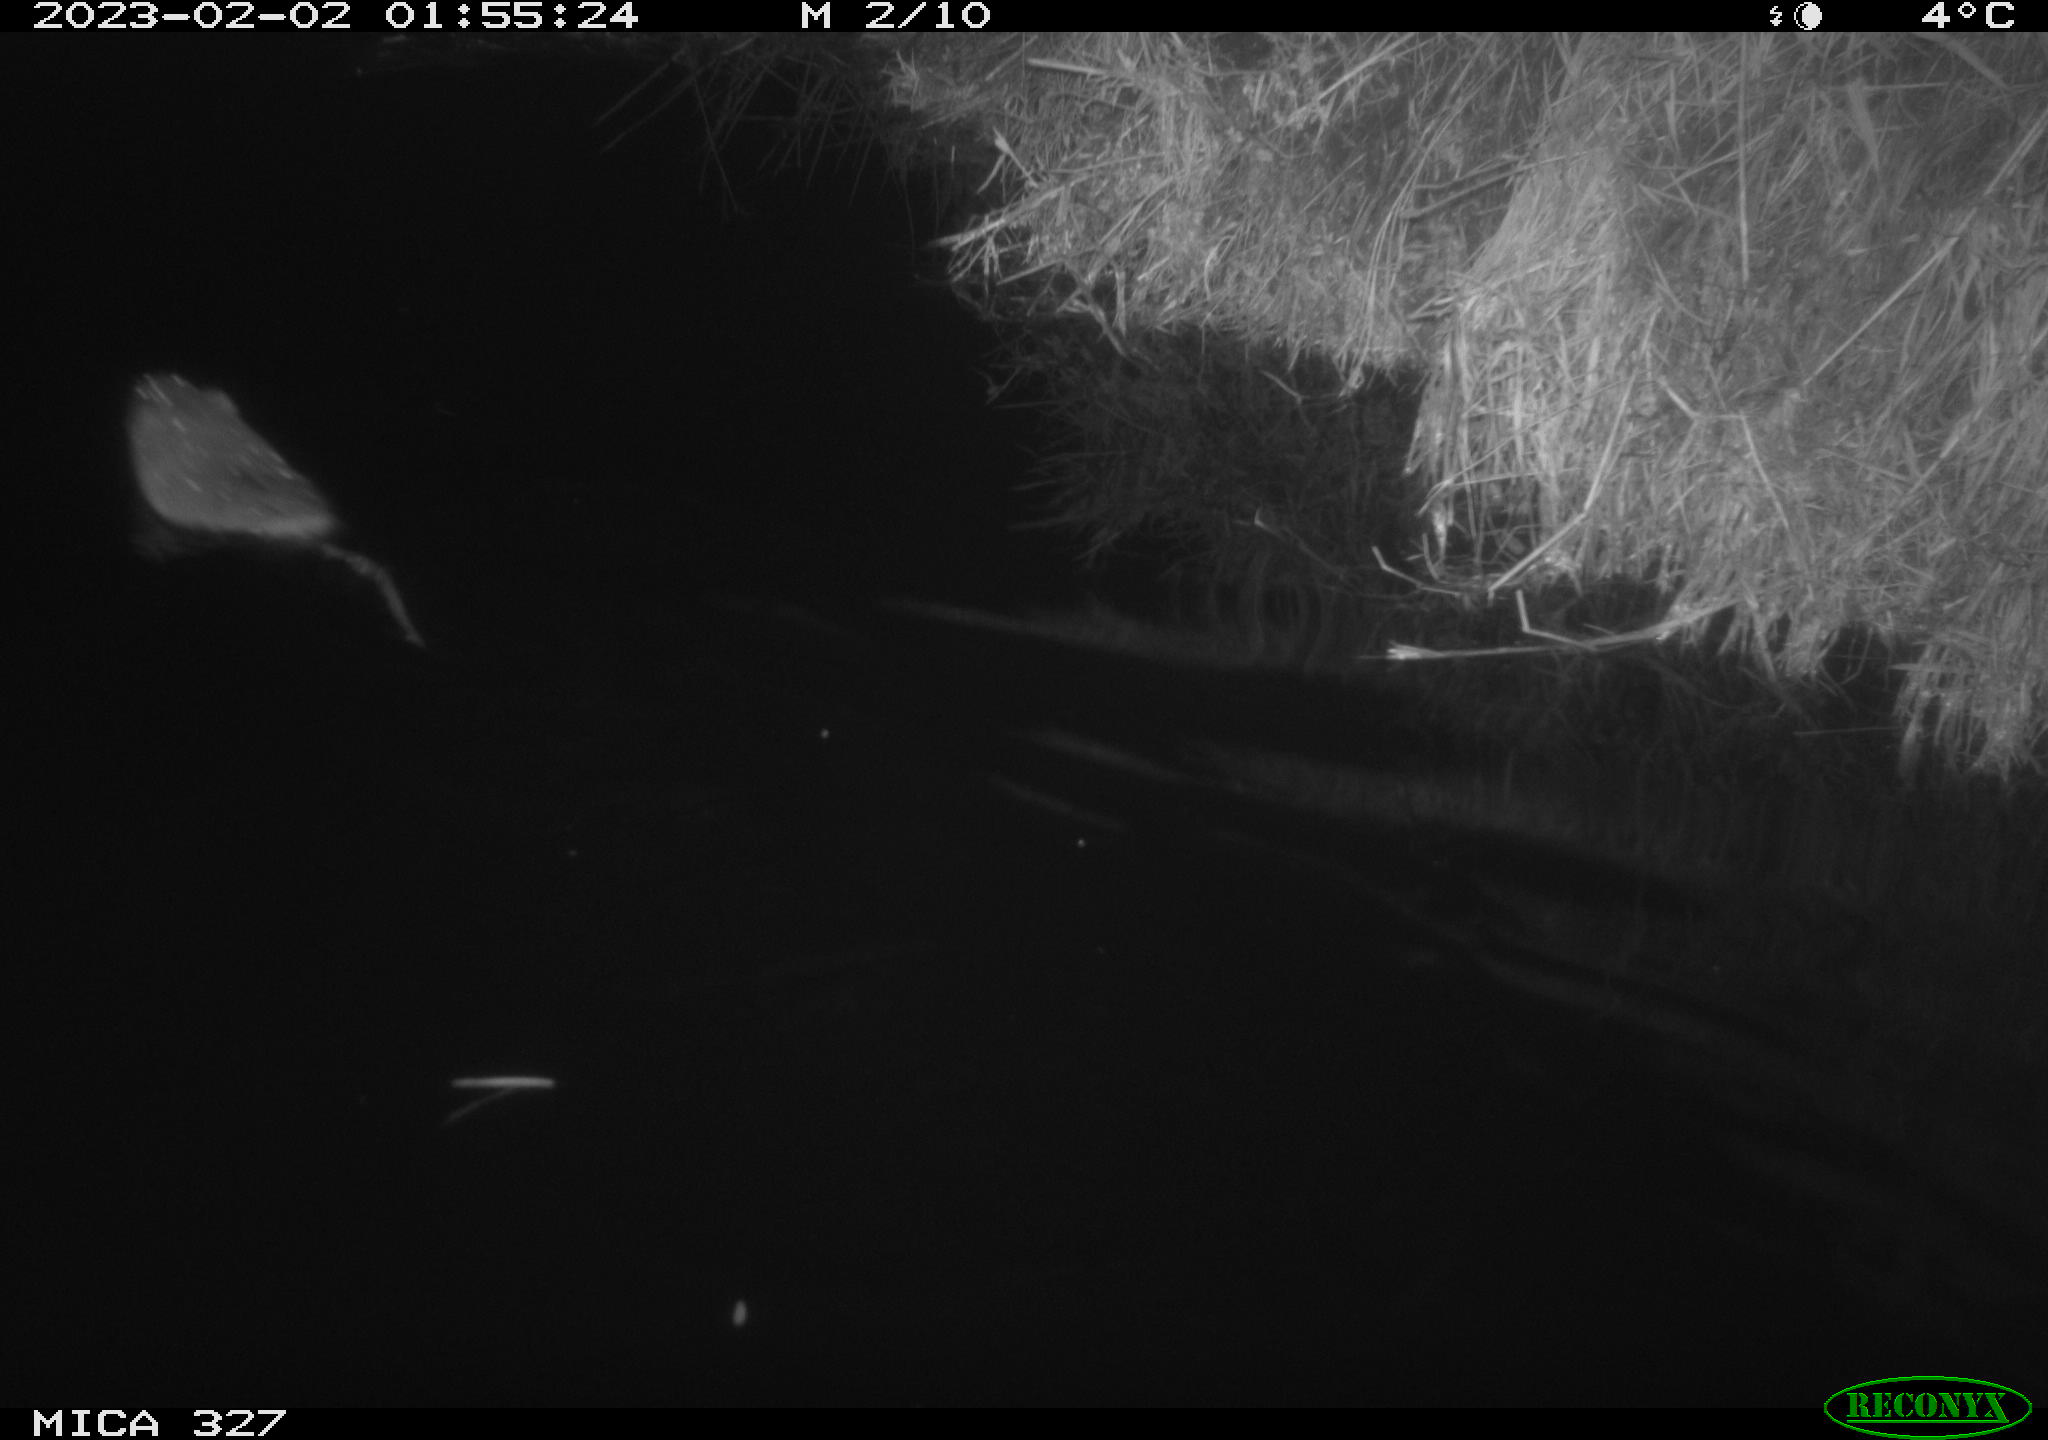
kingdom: Animalia
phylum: Chordata
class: Mammalia
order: Rodentia
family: Cricetidae
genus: Ondatra
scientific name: Ondatra zibethicus
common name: Muskrat
